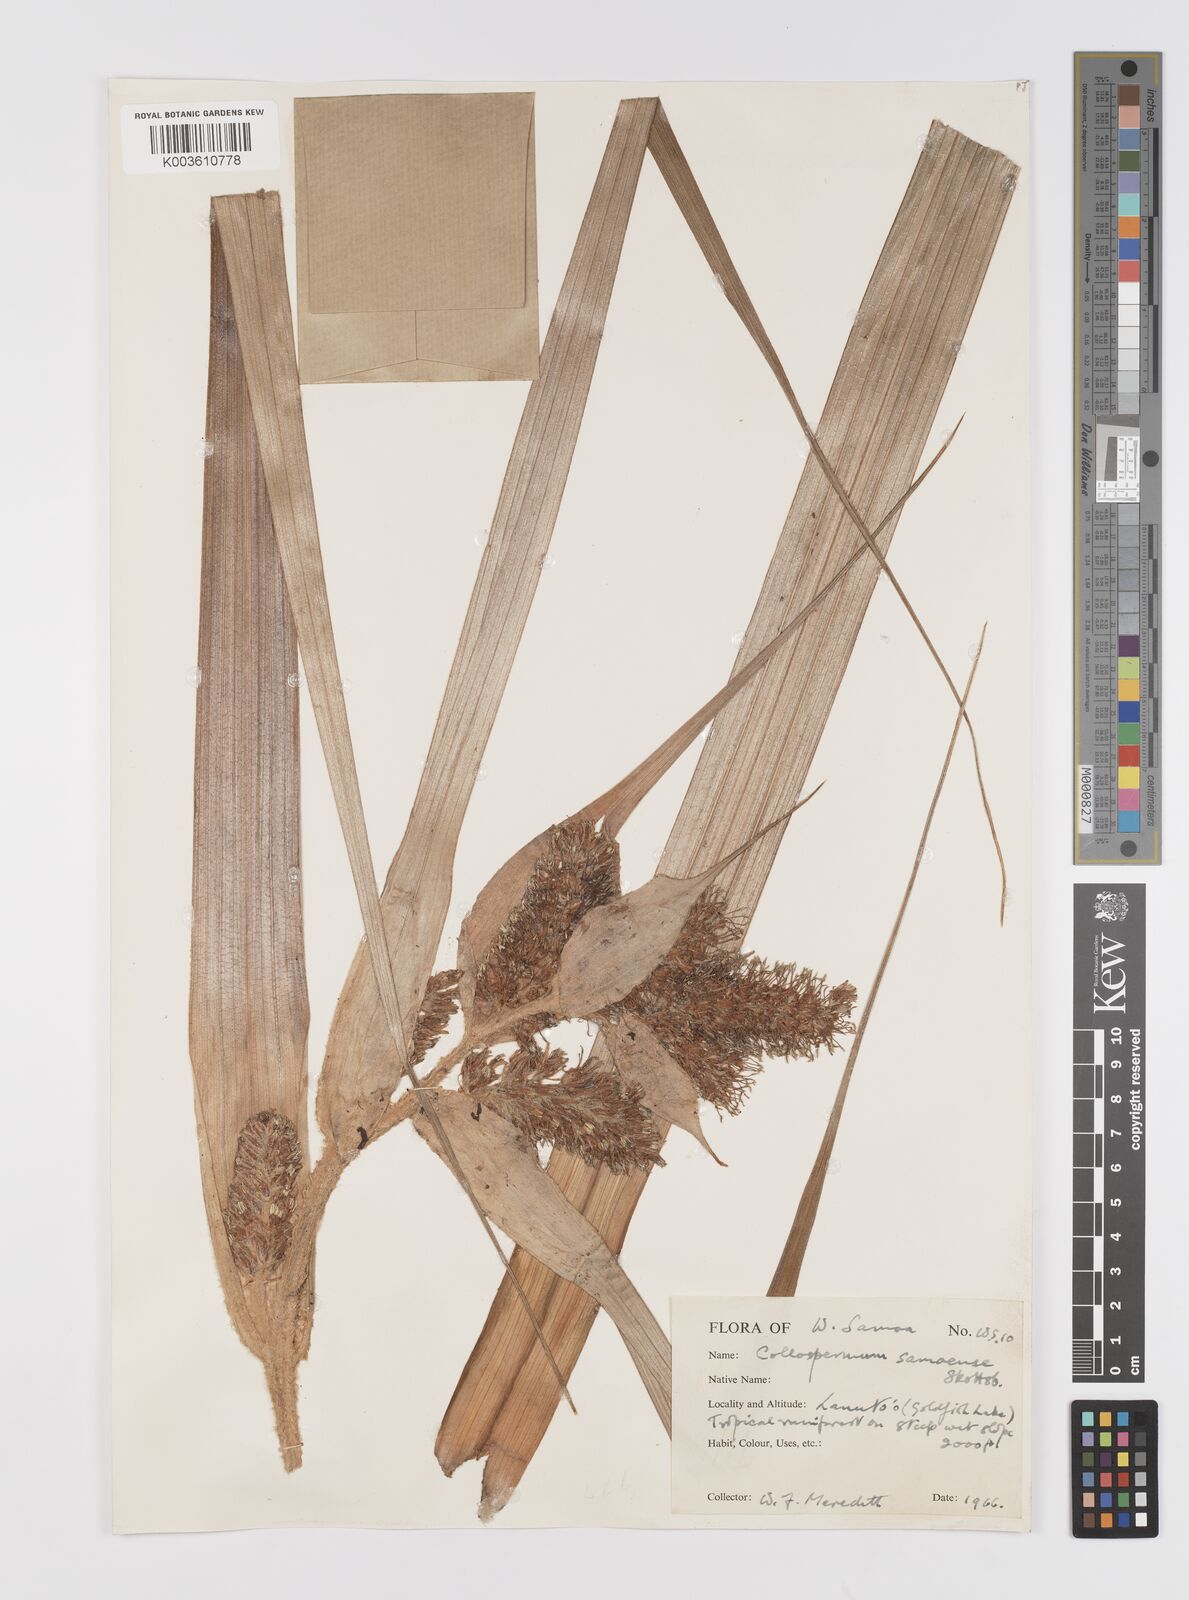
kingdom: Plantae
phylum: Tracheophyta
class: Liliopsida
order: Asparagales
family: Asteliaceae
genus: Astelia
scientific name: Astelia samoense
